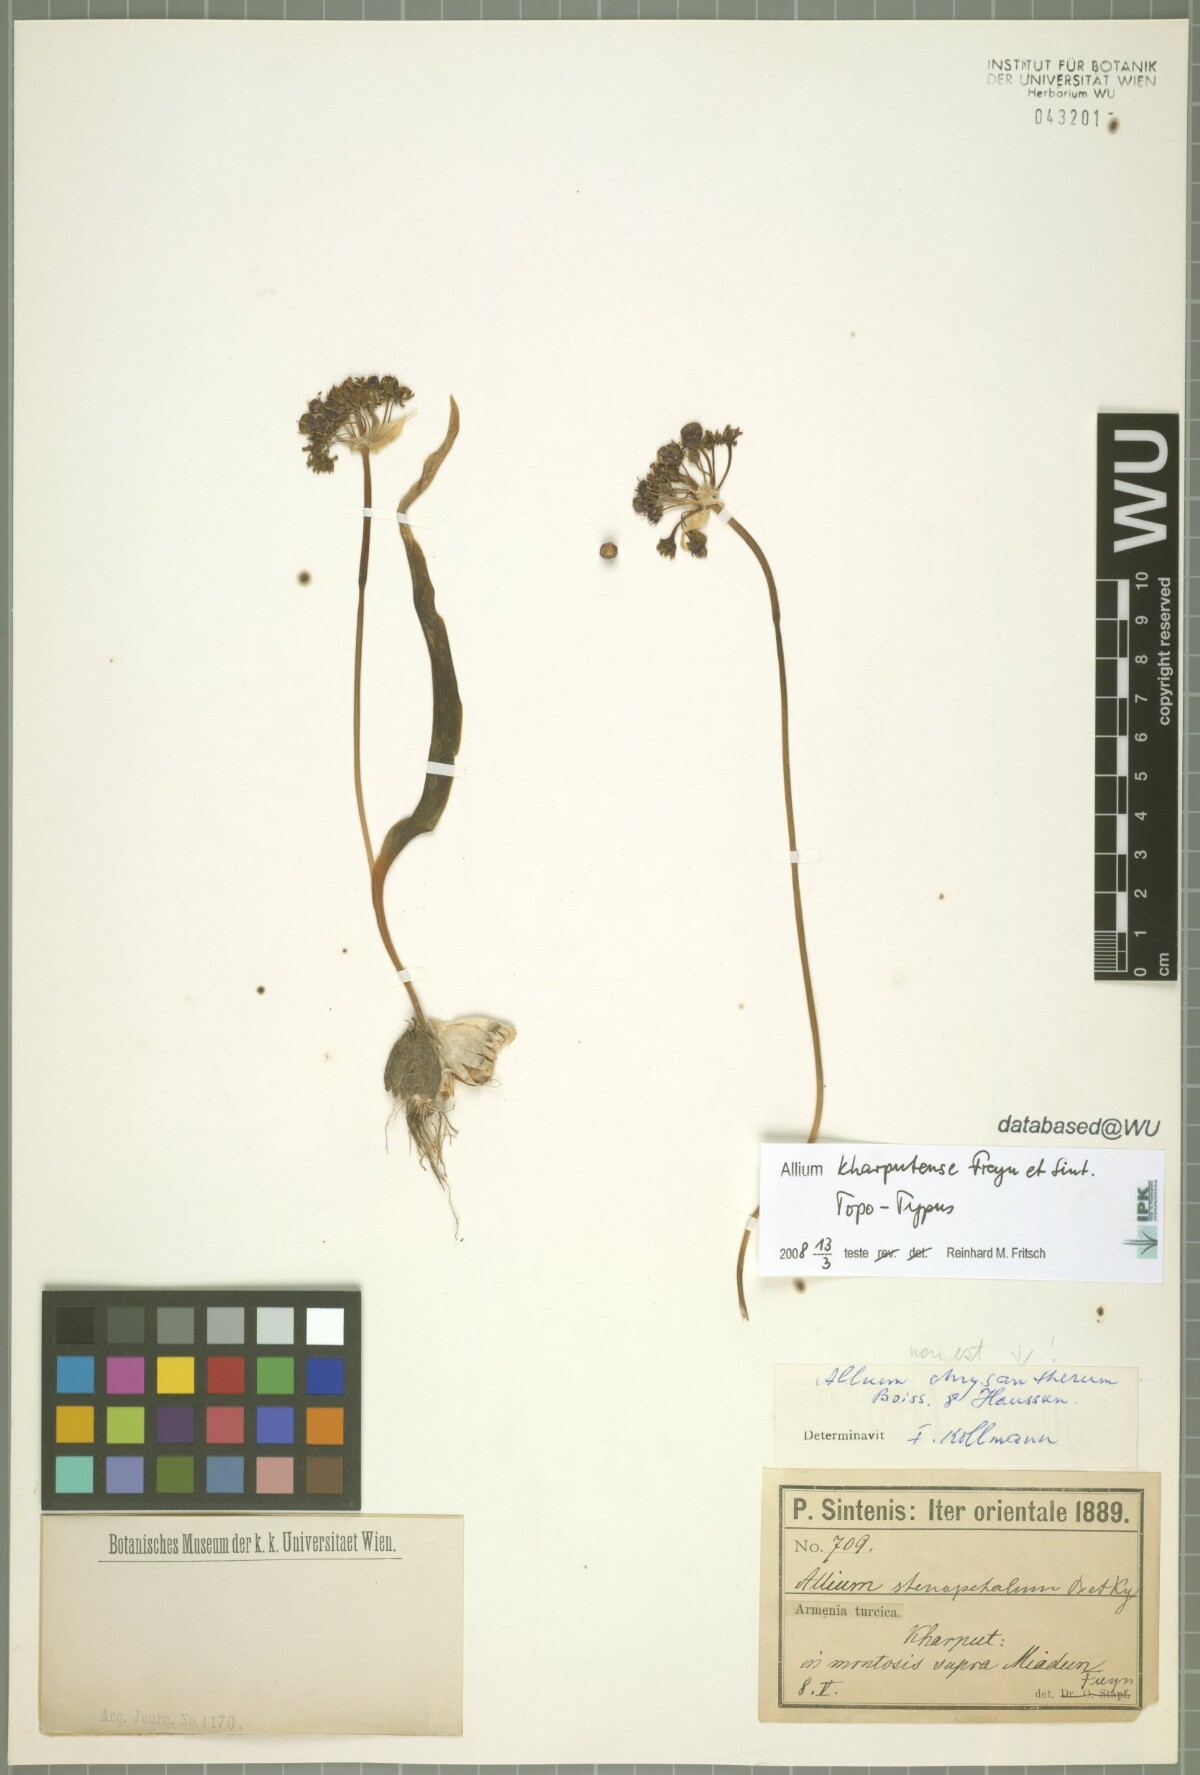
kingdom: Plantae
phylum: Tracheophyta
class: Liliopsida
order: Asparagales
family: Amaryllidaceae
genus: Allium
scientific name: Allium kharputense
